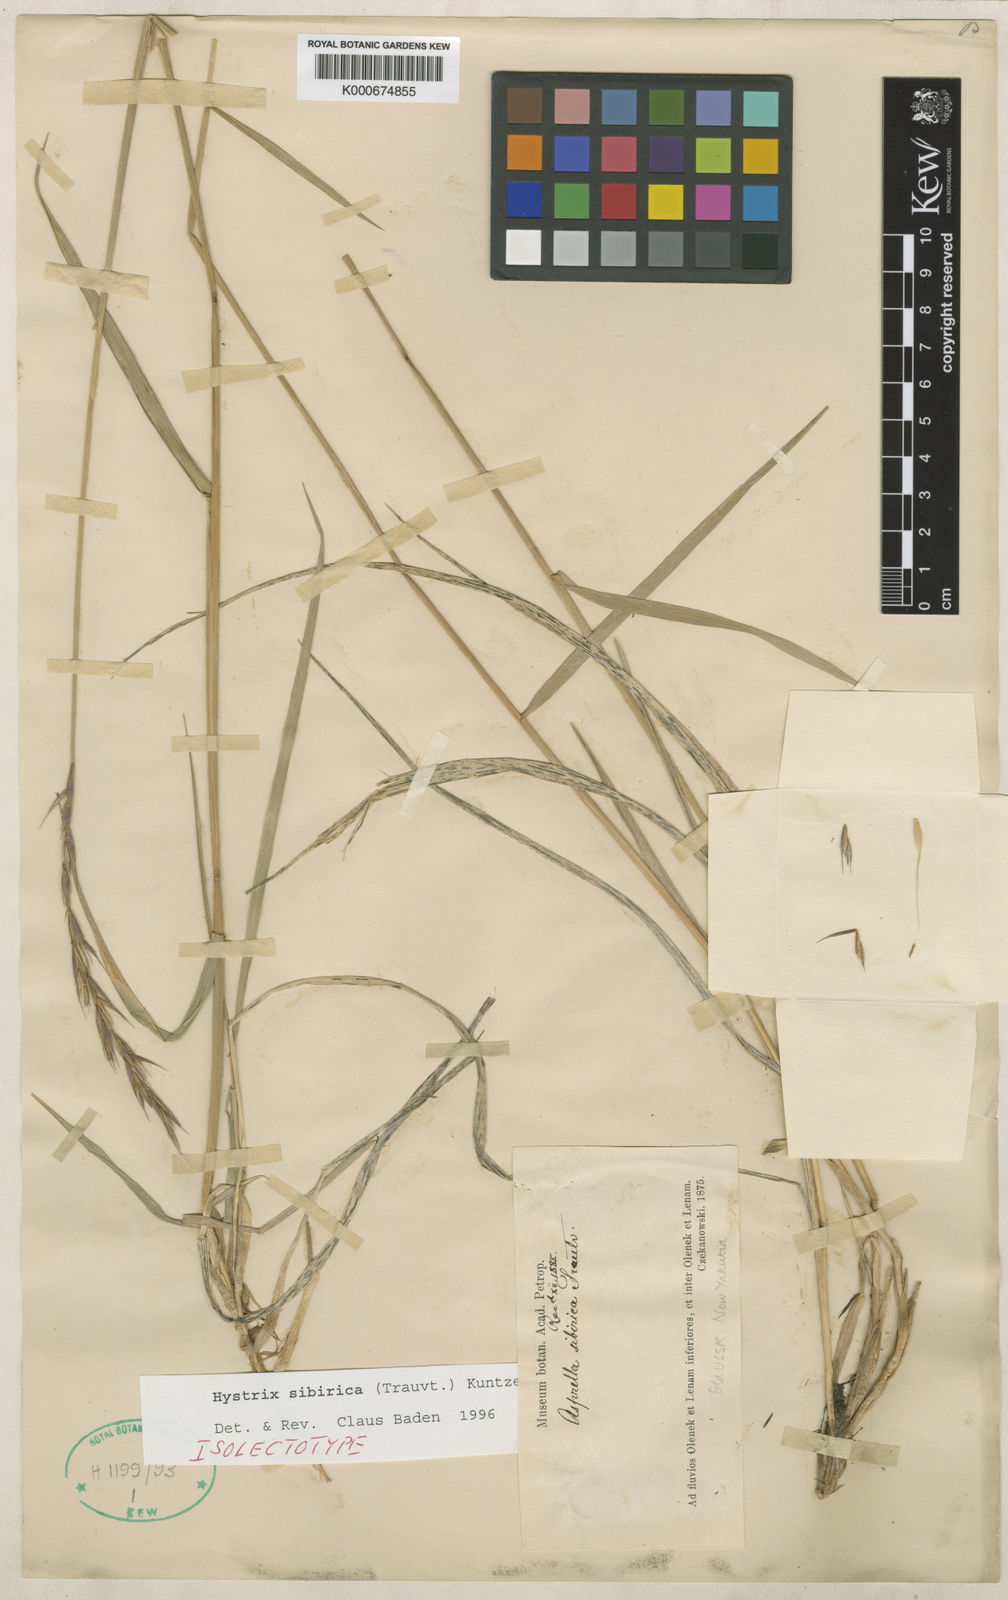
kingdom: Plantae
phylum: Tracheophyta
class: Liliopsida
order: Poales
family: Poaceae
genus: Leymus
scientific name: Leymus sibiricus
